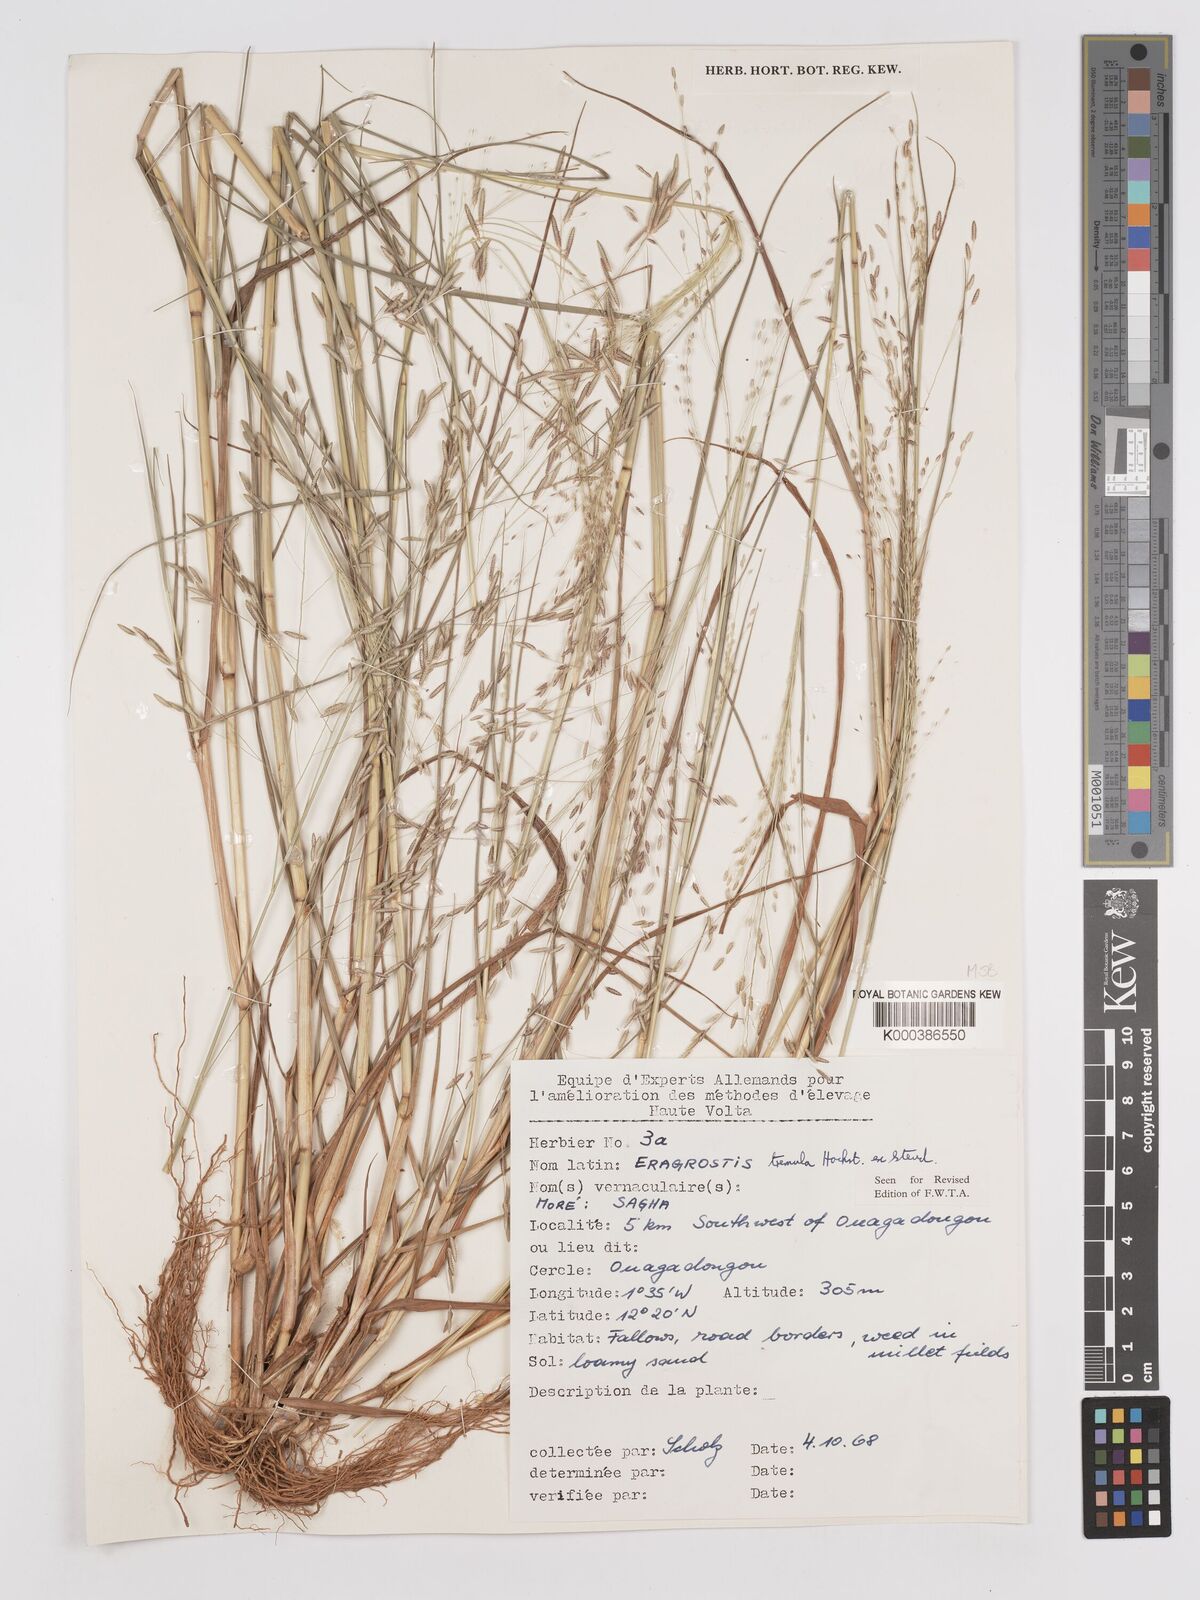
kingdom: Plantae
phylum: Tracheophyta
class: Liliopsida
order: Poales
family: Poaceae
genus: Eragrostis
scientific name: Eragrostis tremula
